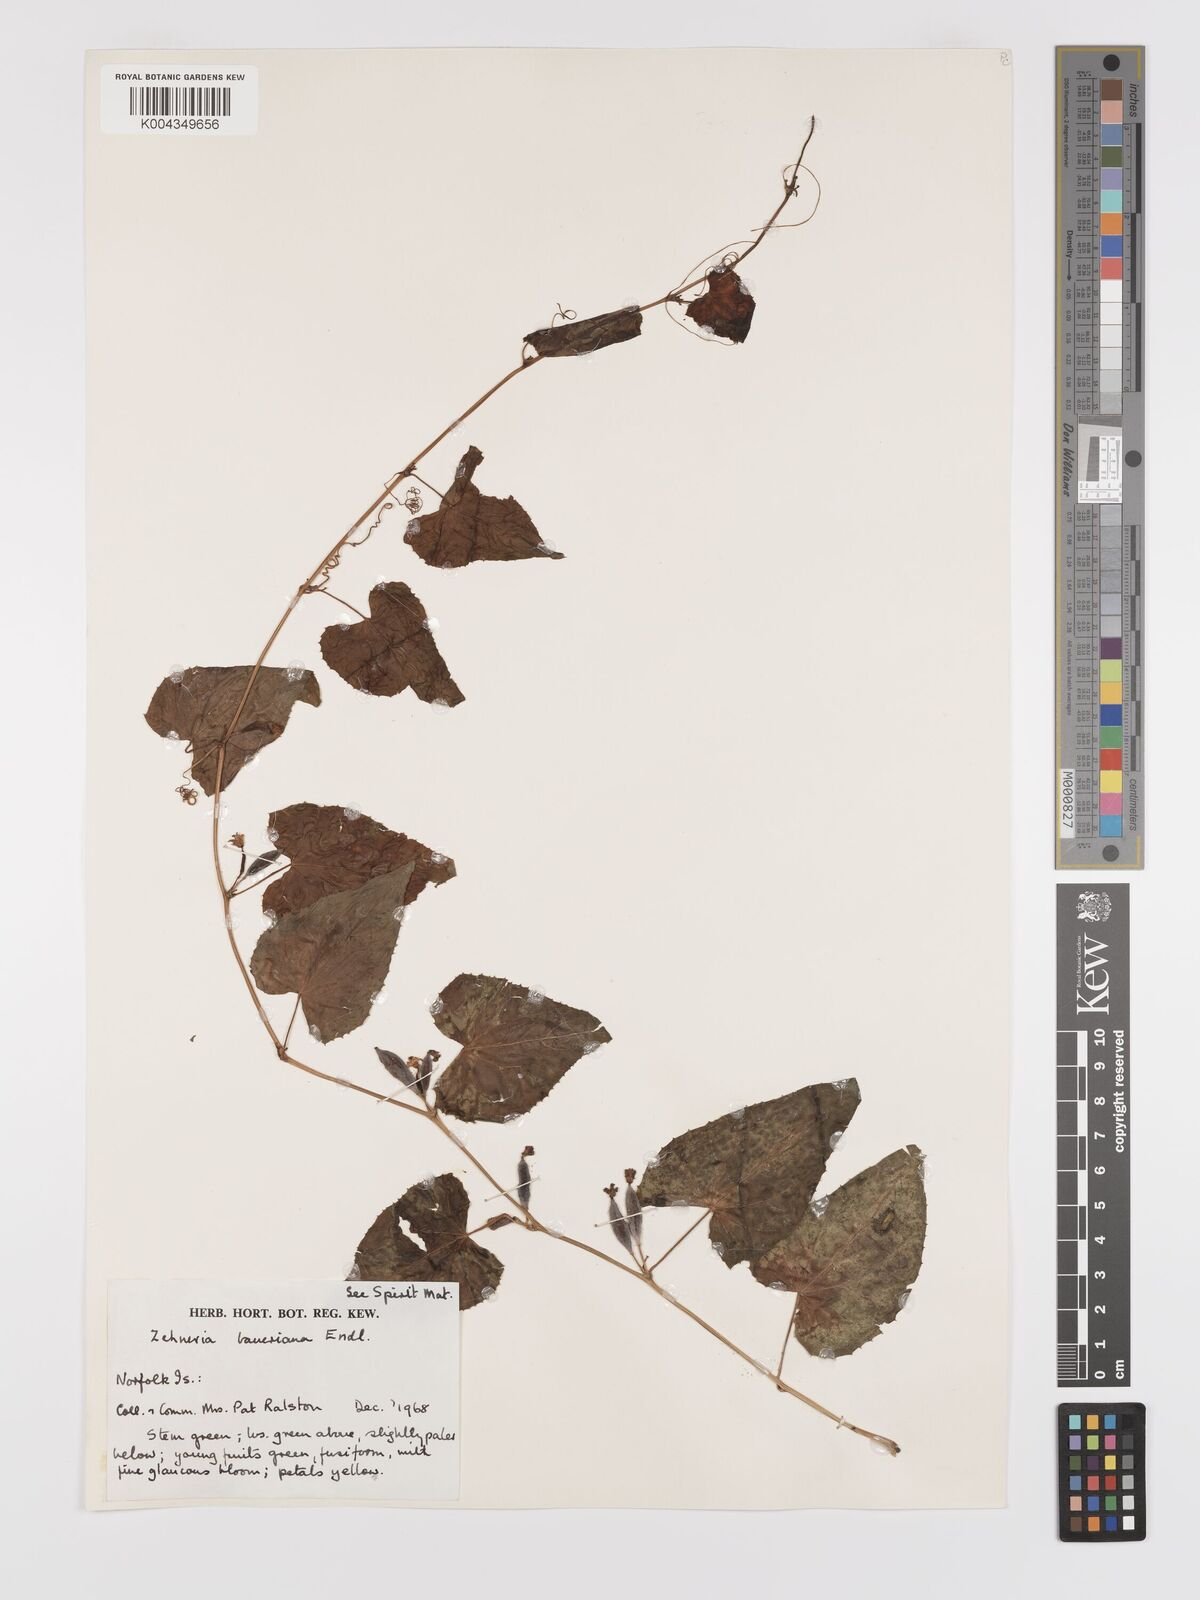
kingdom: Plantae
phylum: Tracheophyta
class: Magnoliopsida
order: Cucurbitales
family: Cucurbitaceae
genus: Zehneria
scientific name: Zehneria mucronata
